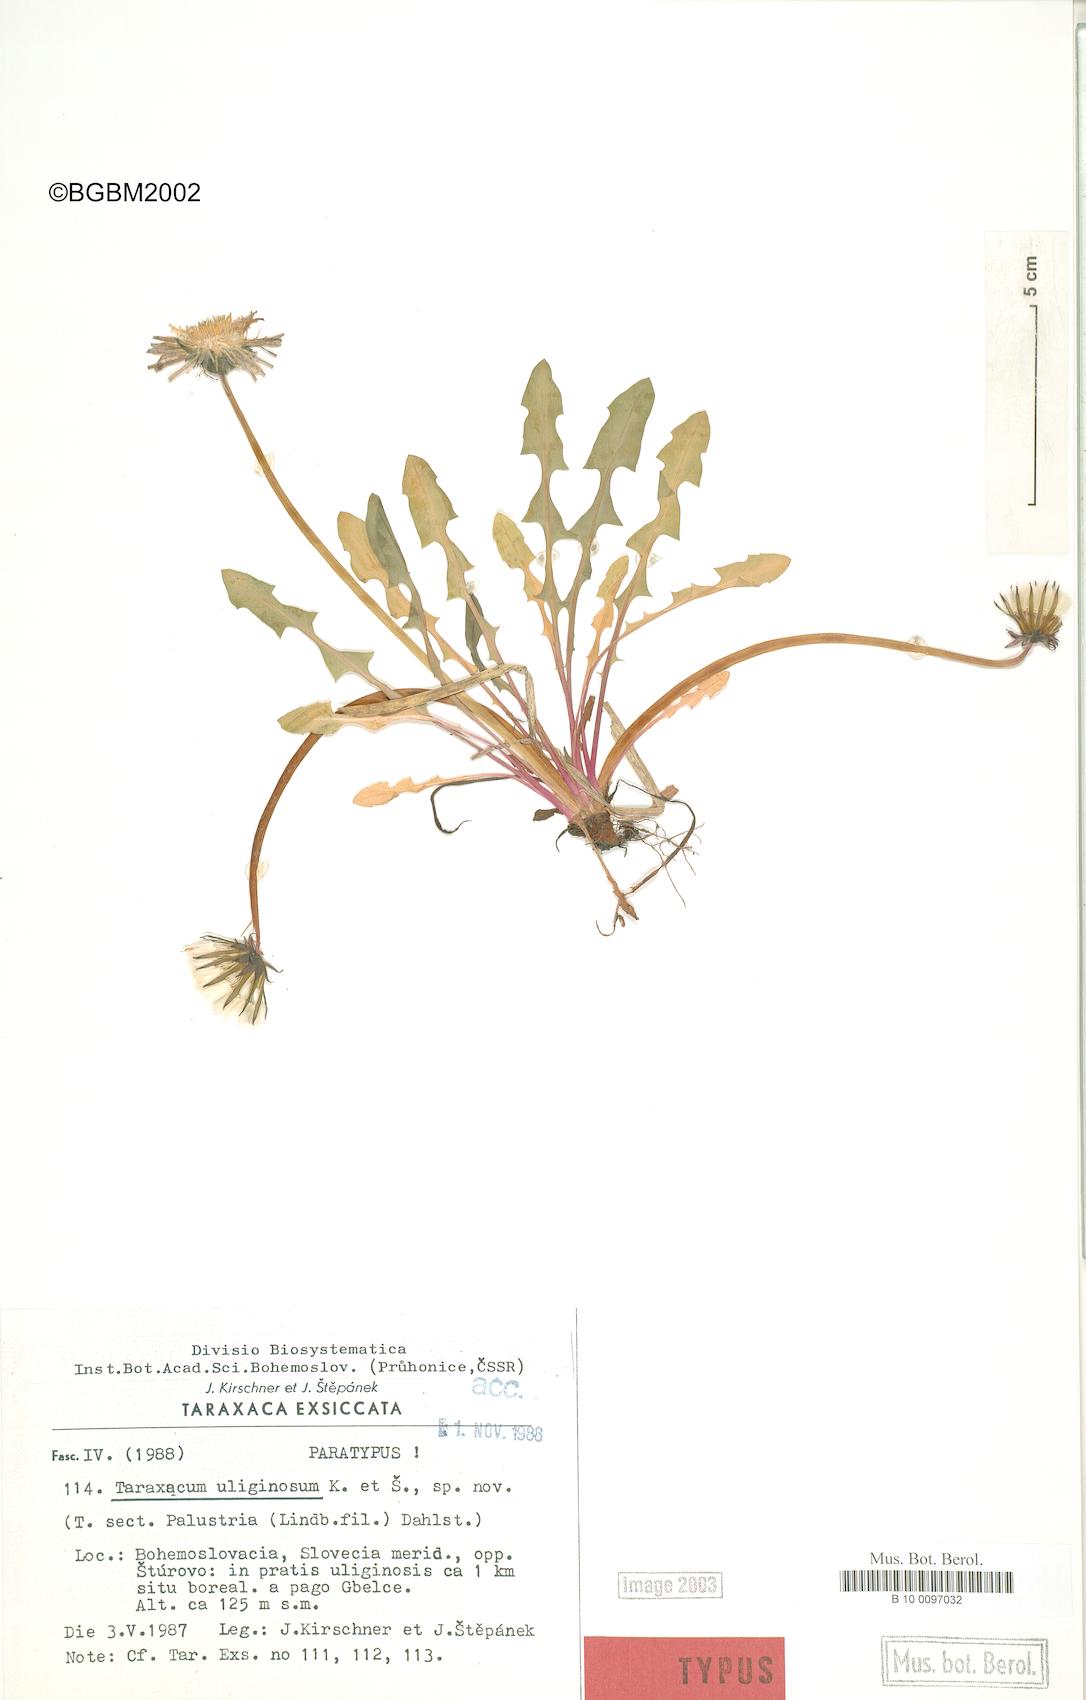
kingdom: Plantae
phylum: Tracheophyta
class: Magnoliopsida
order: Asterales
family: Asteraceae
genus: Taraxacum
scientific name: Taraxacum uliginosum
